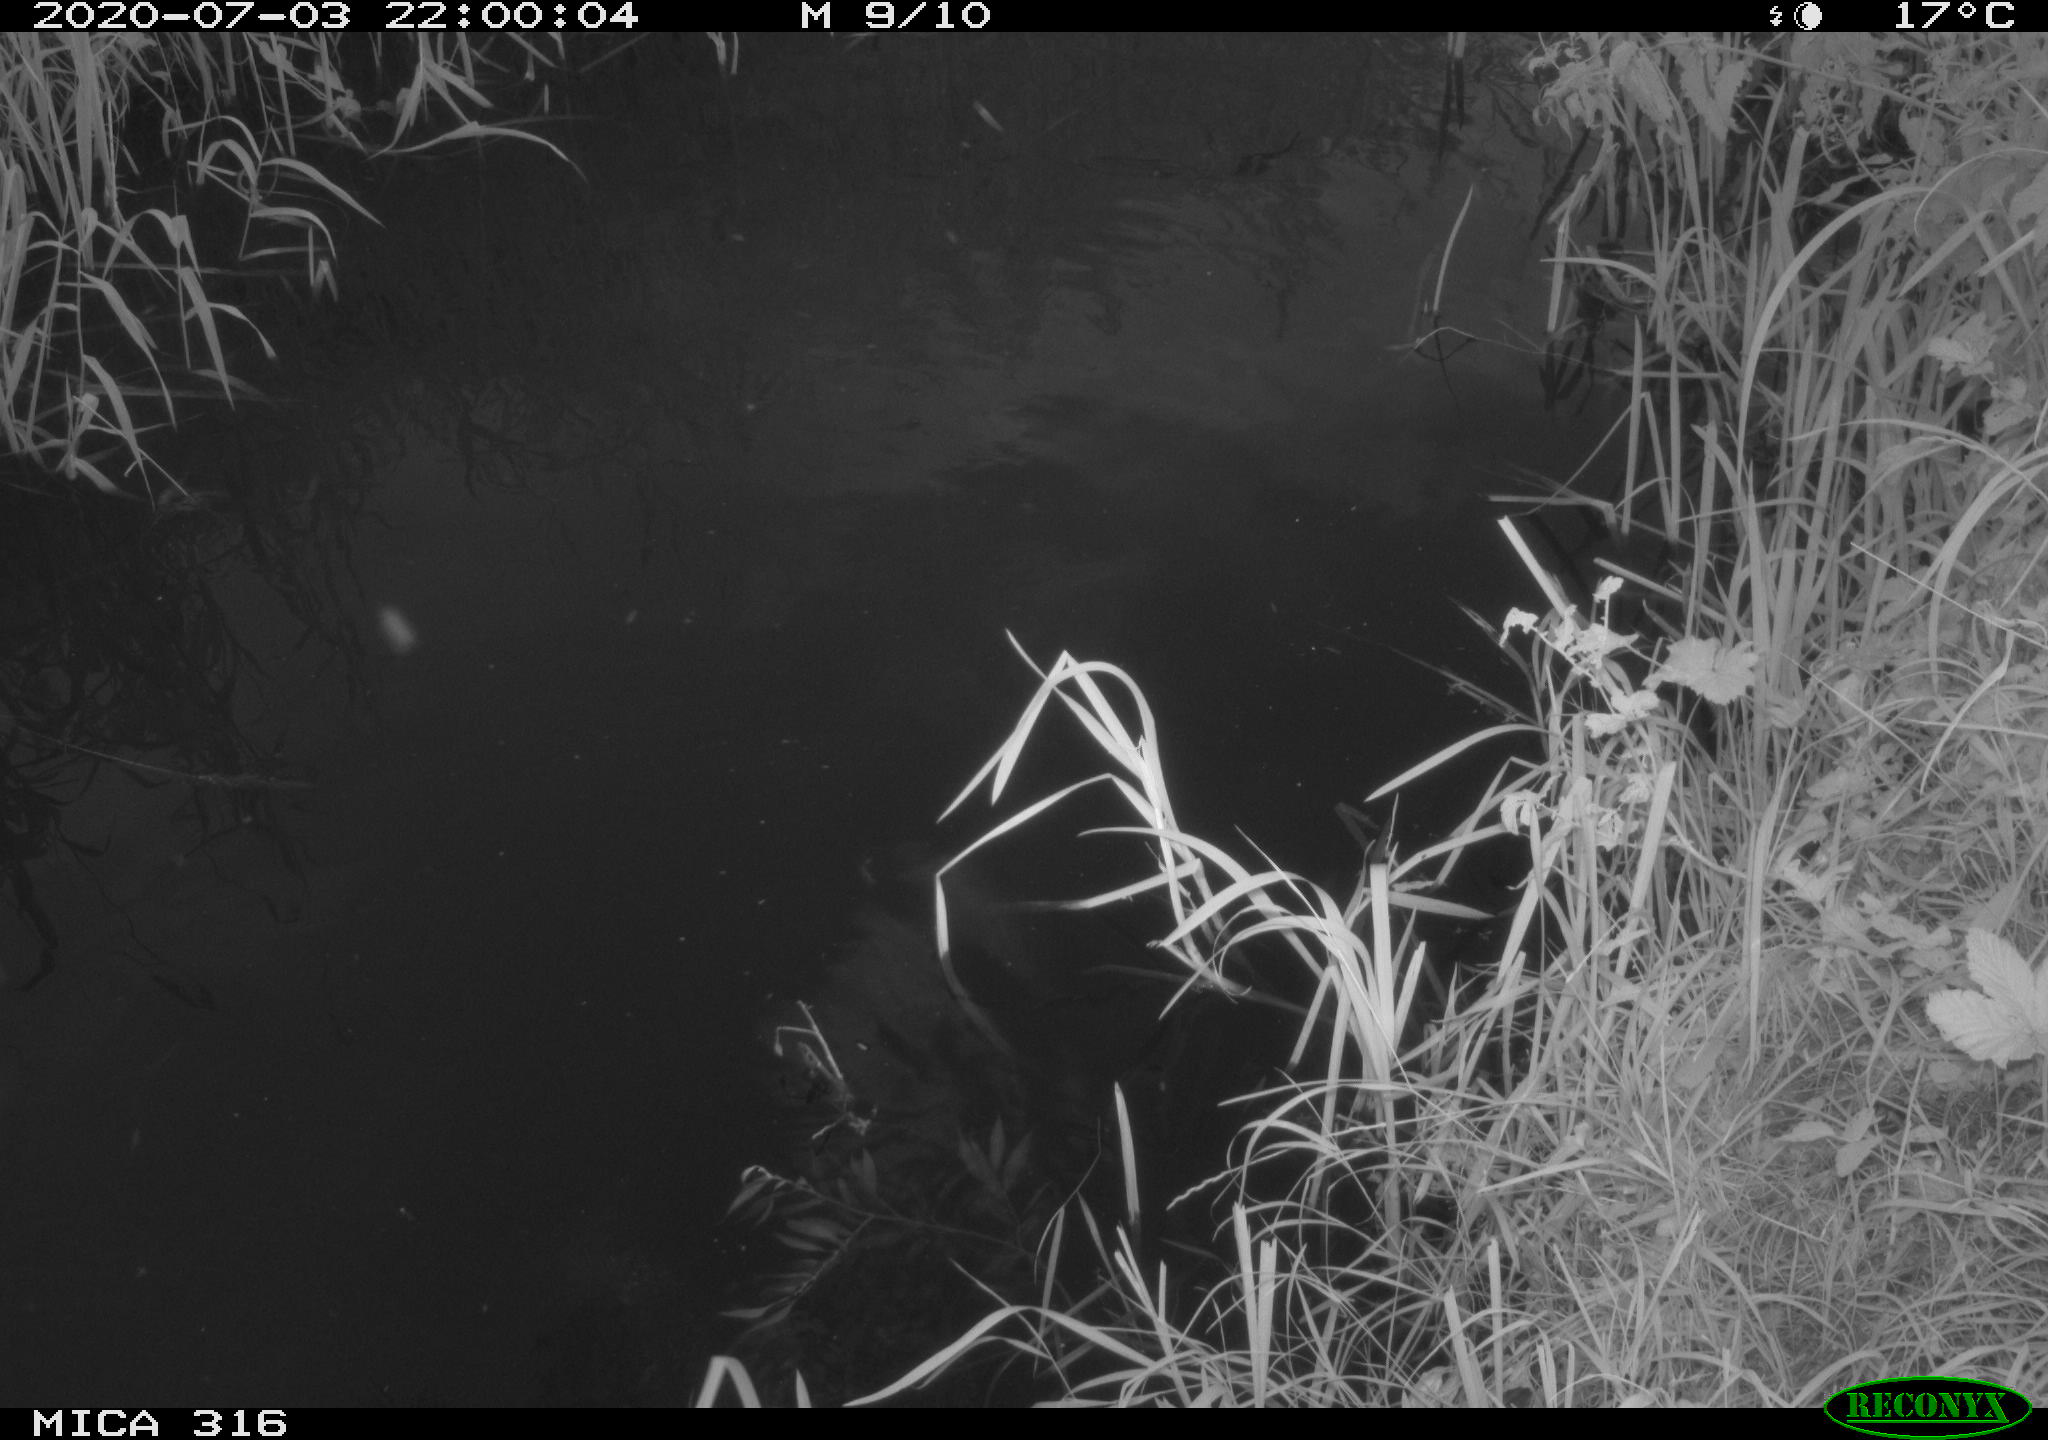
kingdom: Animalia
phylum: Chordata
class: Aves
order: Anseriformes
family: Anatidae
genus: Anas
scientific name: Anas platyrhynchos
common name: Mallard
